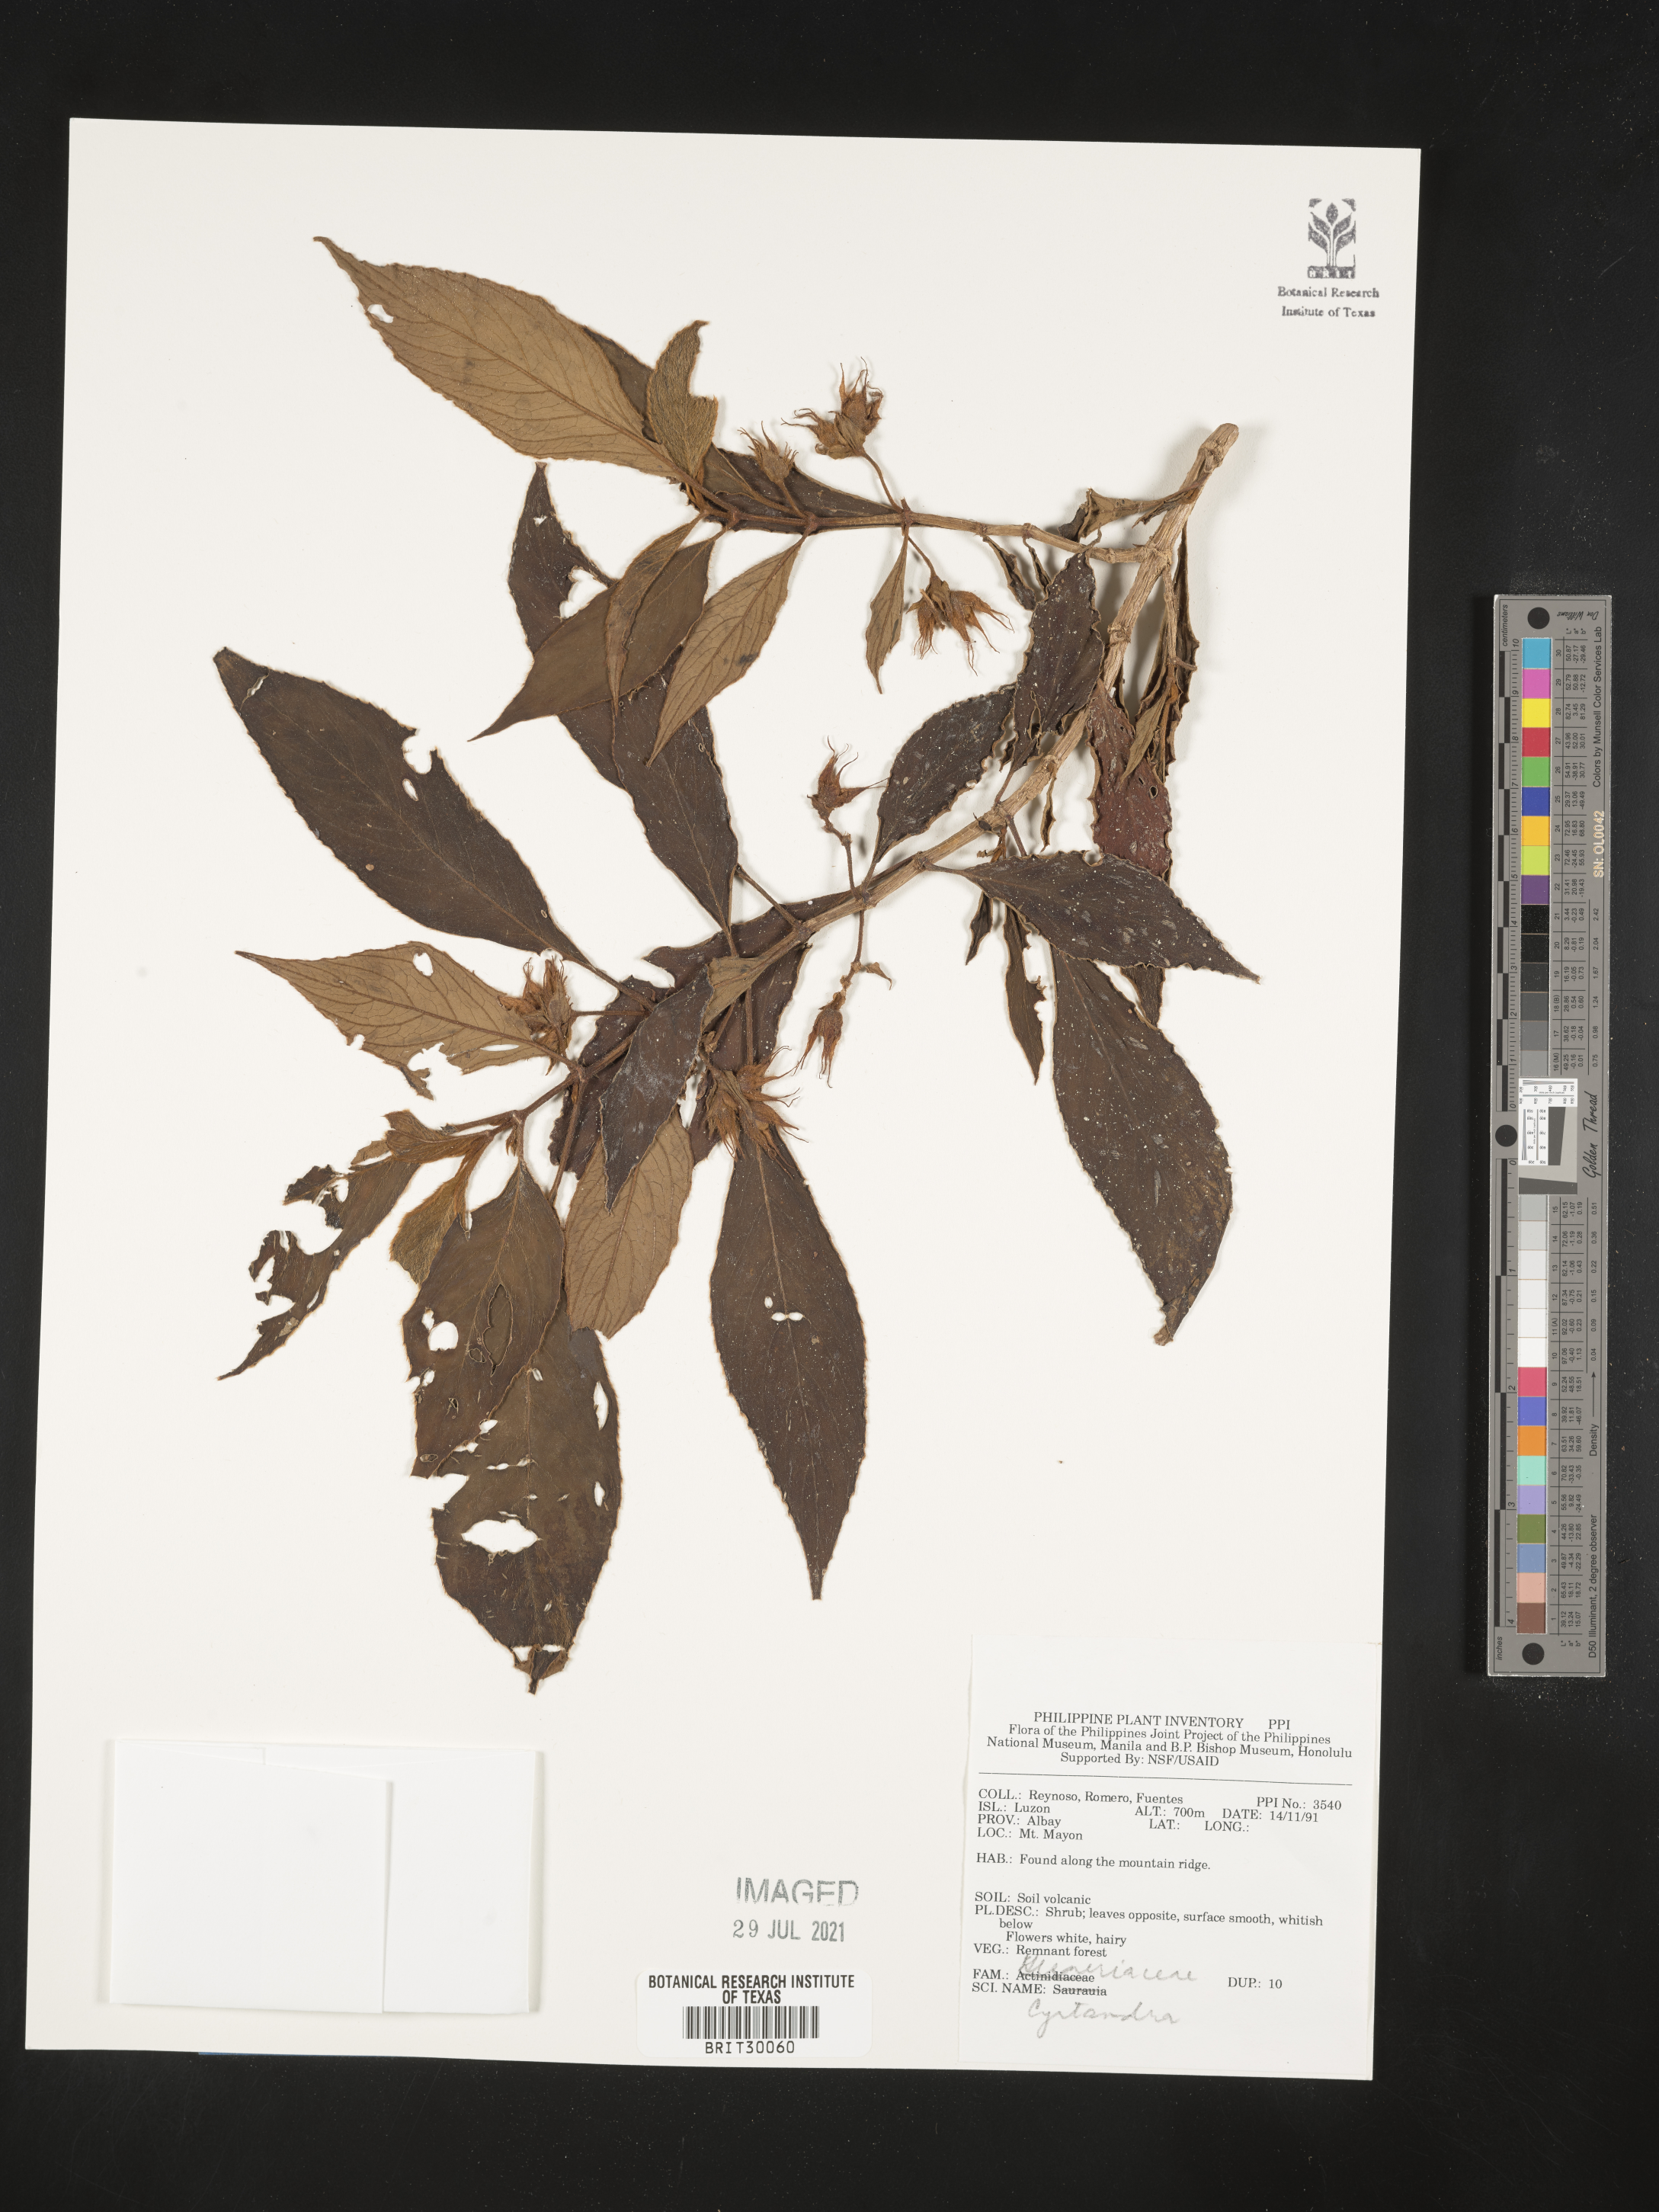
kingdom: Plantae
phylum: Tracheophyta
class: Magnoliopsida
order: Lamiales
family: Gesneriaceae
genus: Cyrtandra
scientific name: Cyrtandra
